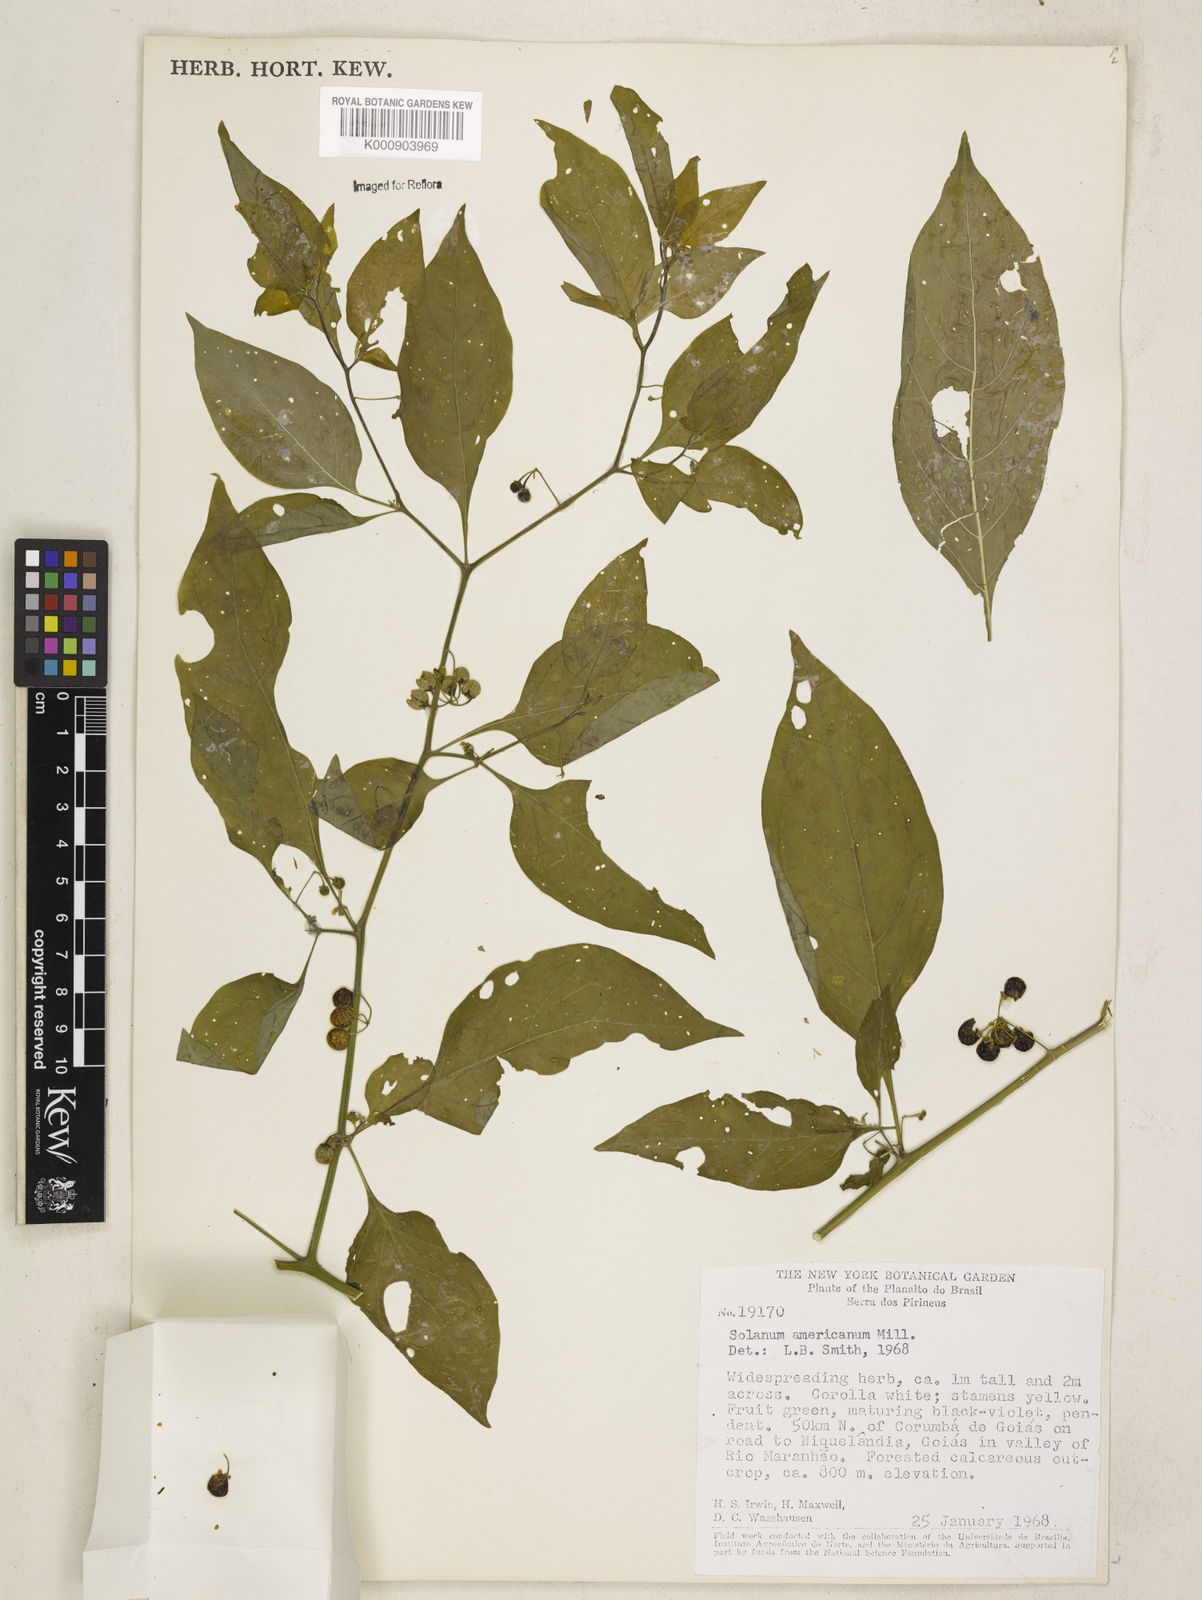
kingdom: Plantae
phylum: Tracheophyta
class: Magnoliopsida
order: Solanales
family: Solanaceae
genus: Solanum
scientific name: Solanum americanum
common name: American black nightshade
